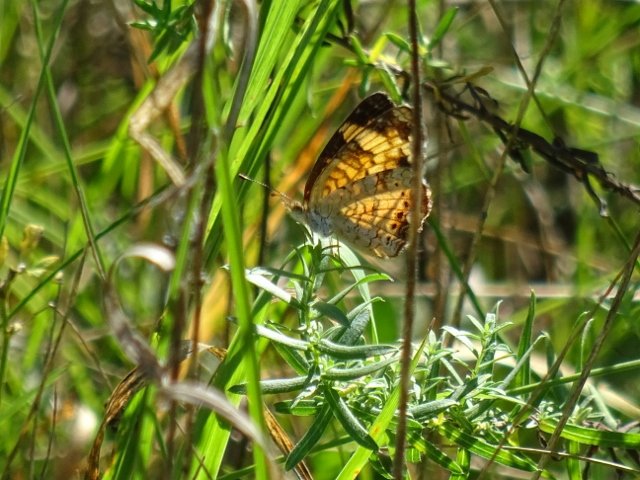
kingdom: Animalia
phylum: Arthropoda
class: Insecta
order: Lepidoptera
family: Nymphalidae
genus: Phyciodes
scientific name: Phyciodes tharos
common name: Pearl Crescent
